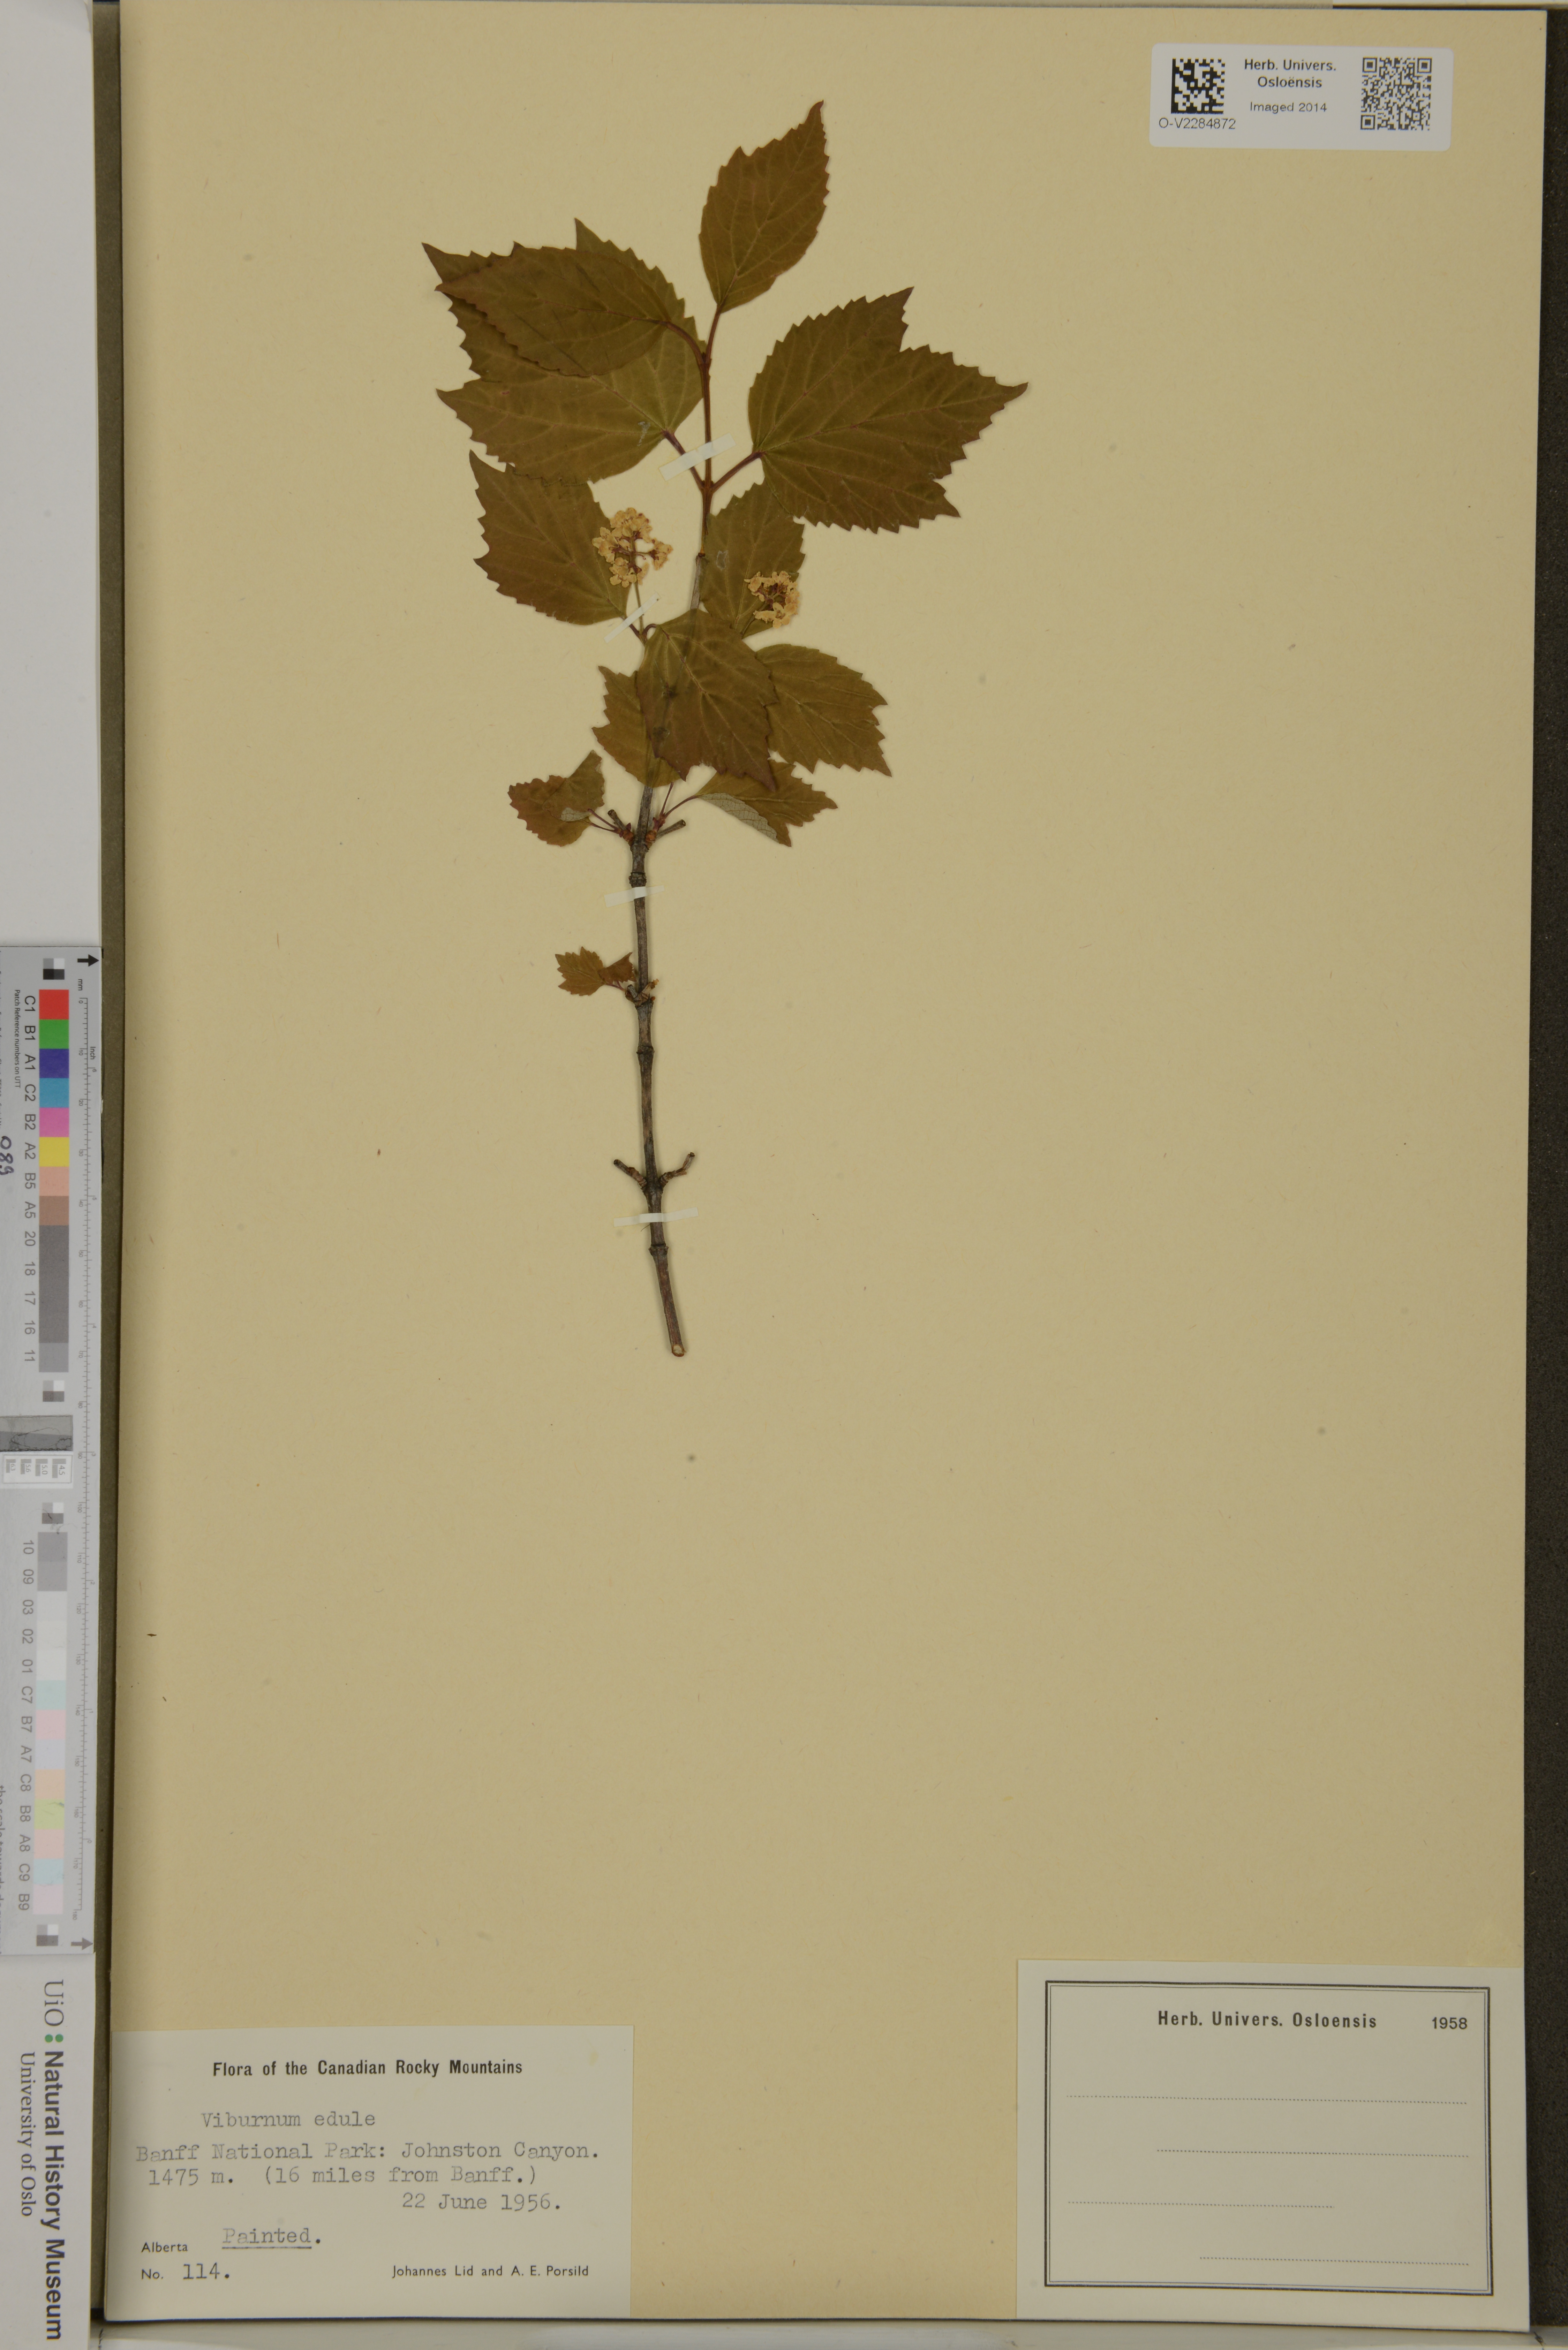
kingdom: Plantae
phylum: Tracheophyta
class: Magnoliopsida
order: Dipsacales
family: Viburnaceae
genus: Viburnum
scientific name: Viburnum edule
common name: Mooseberry
